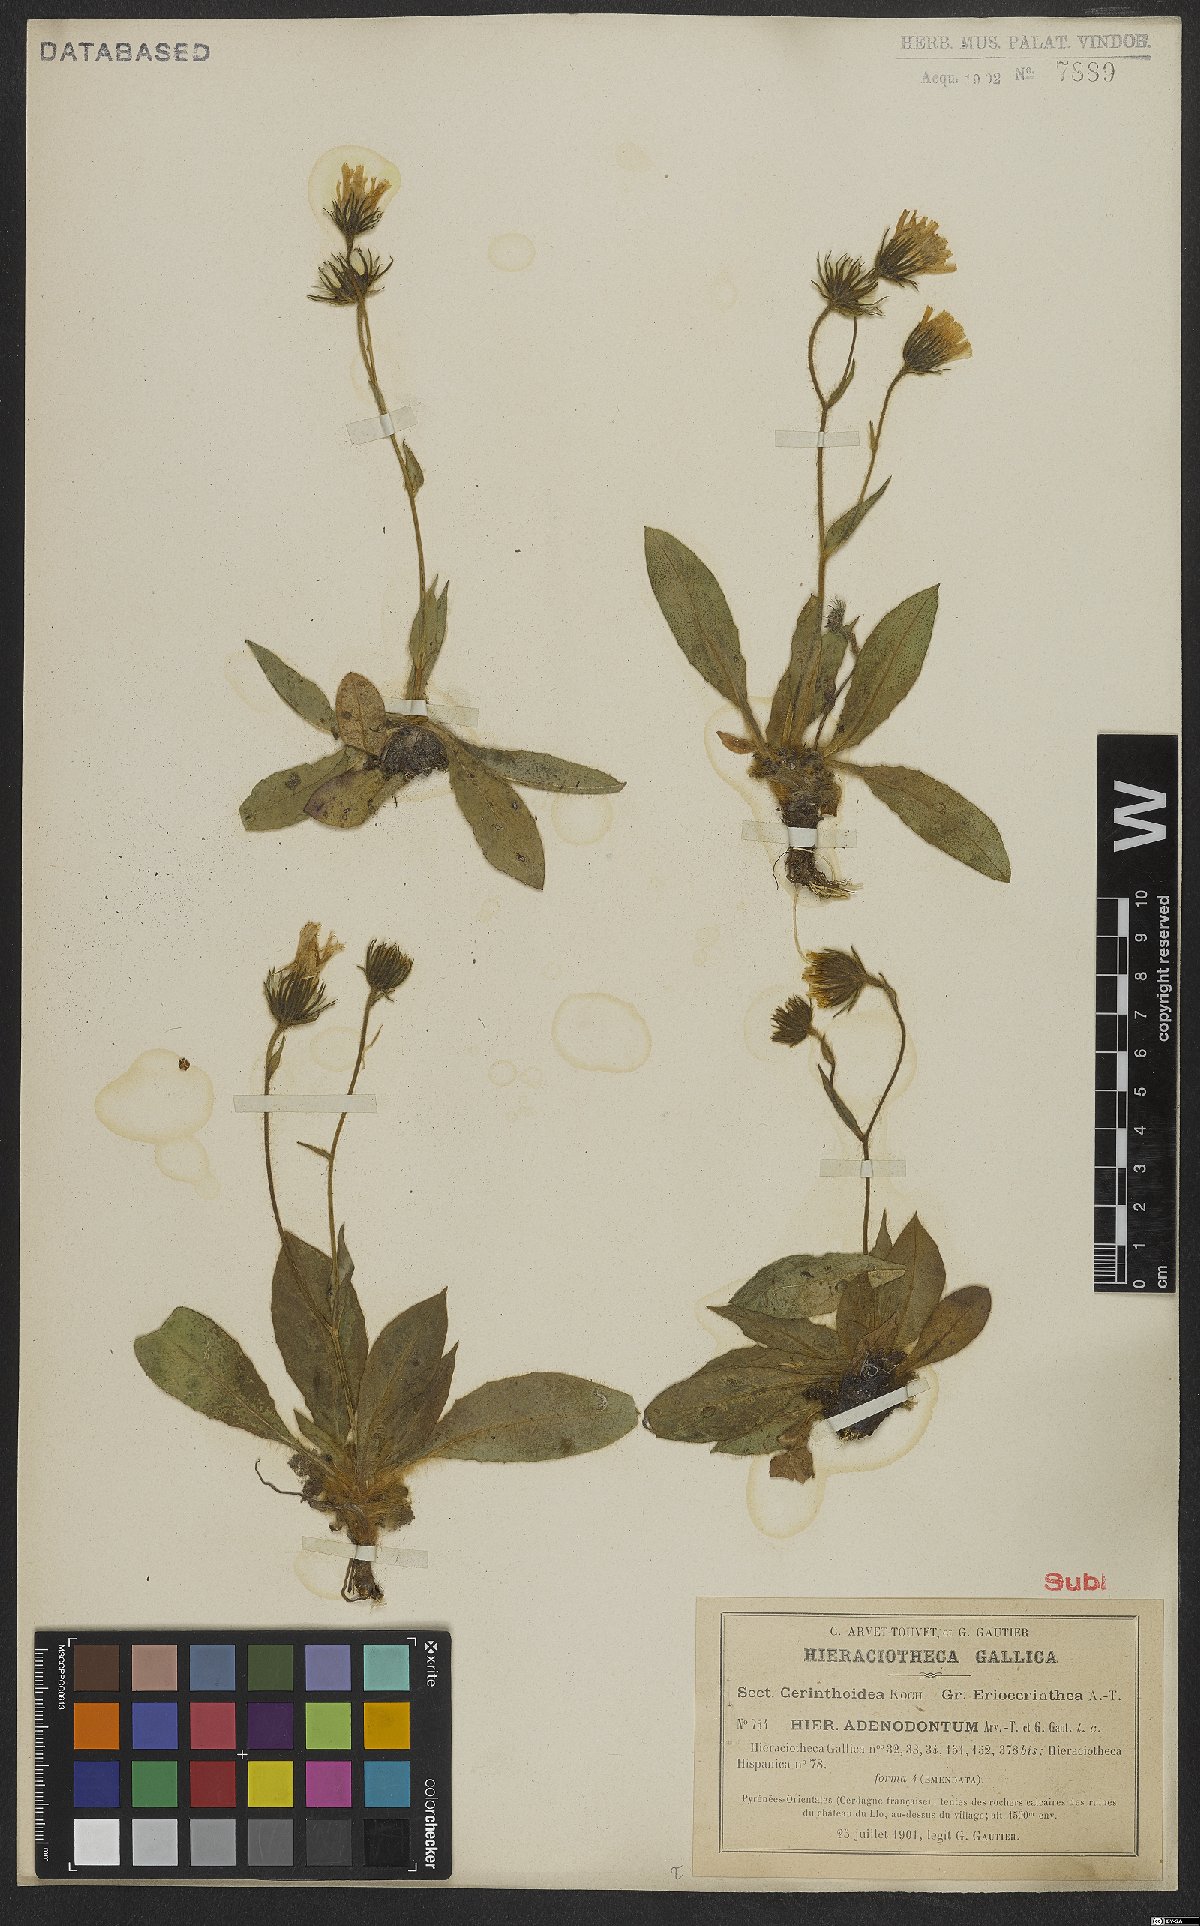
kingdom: Plantae
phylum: Tracheophyta
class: Magnoliopsida
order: Asterales
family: Asteraceae
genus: Hieracium
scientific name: Hieracium adenodontum
